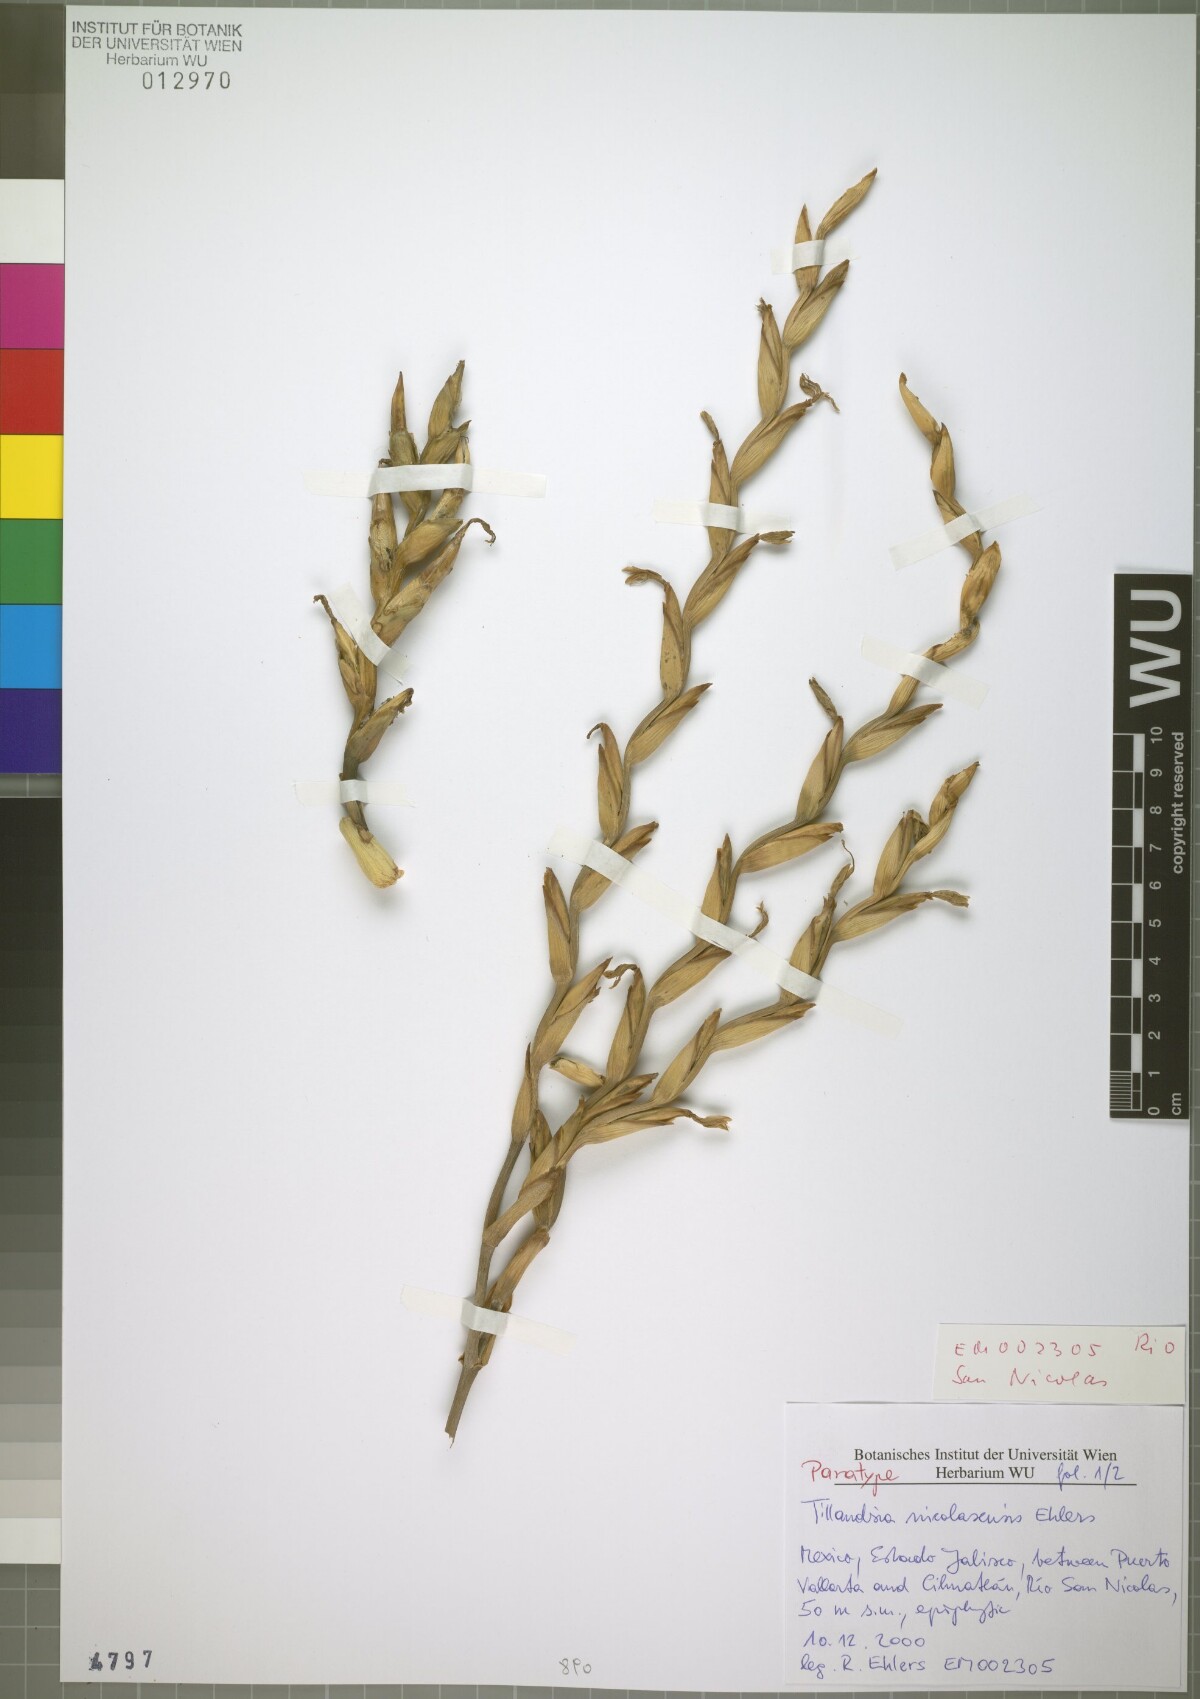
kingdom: Plantae
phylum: Tracheophyta
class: Liliopsida
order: Poales
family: Bromeliaceae
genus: Tillandsia
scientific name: Tillandsia nicolasensis
